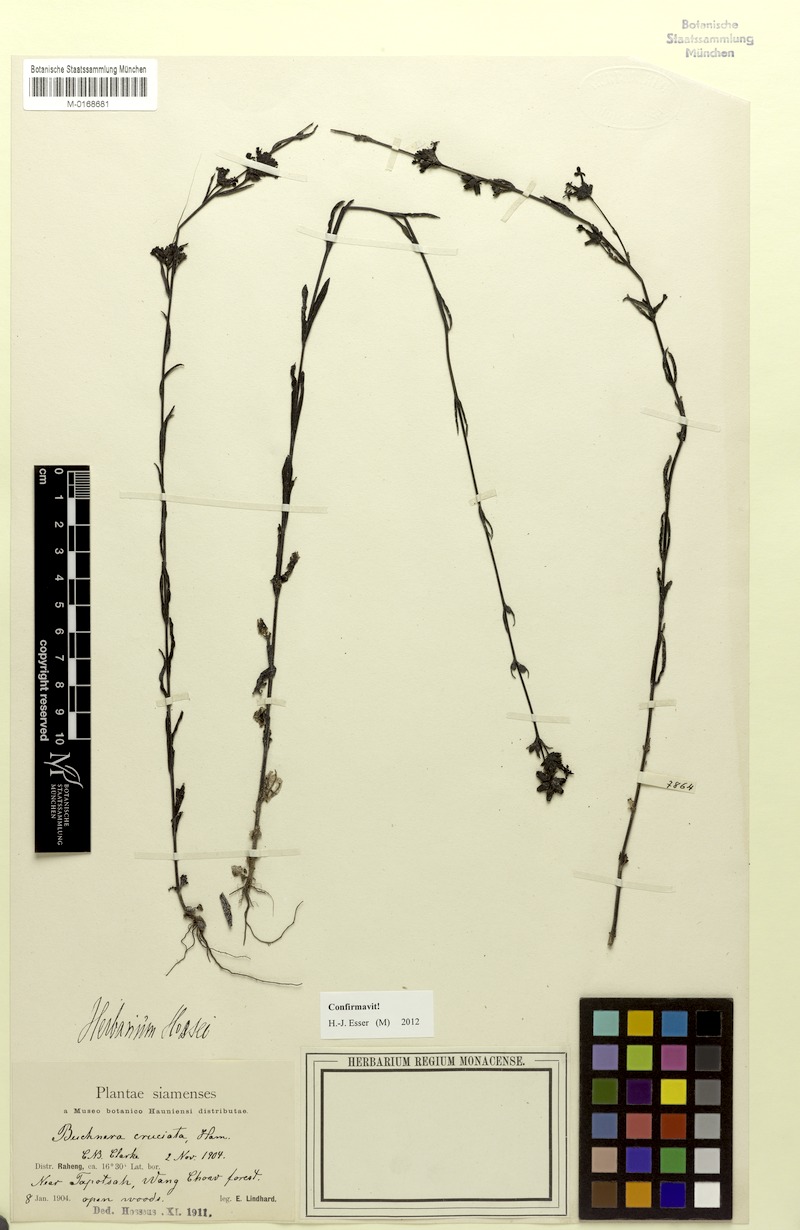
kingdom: Plantae
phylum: Tracheophyta
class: Magnoliopsida
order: Lamiales
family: Orobanchaceae
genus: Buchnera
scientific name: Buchnera cruciata
